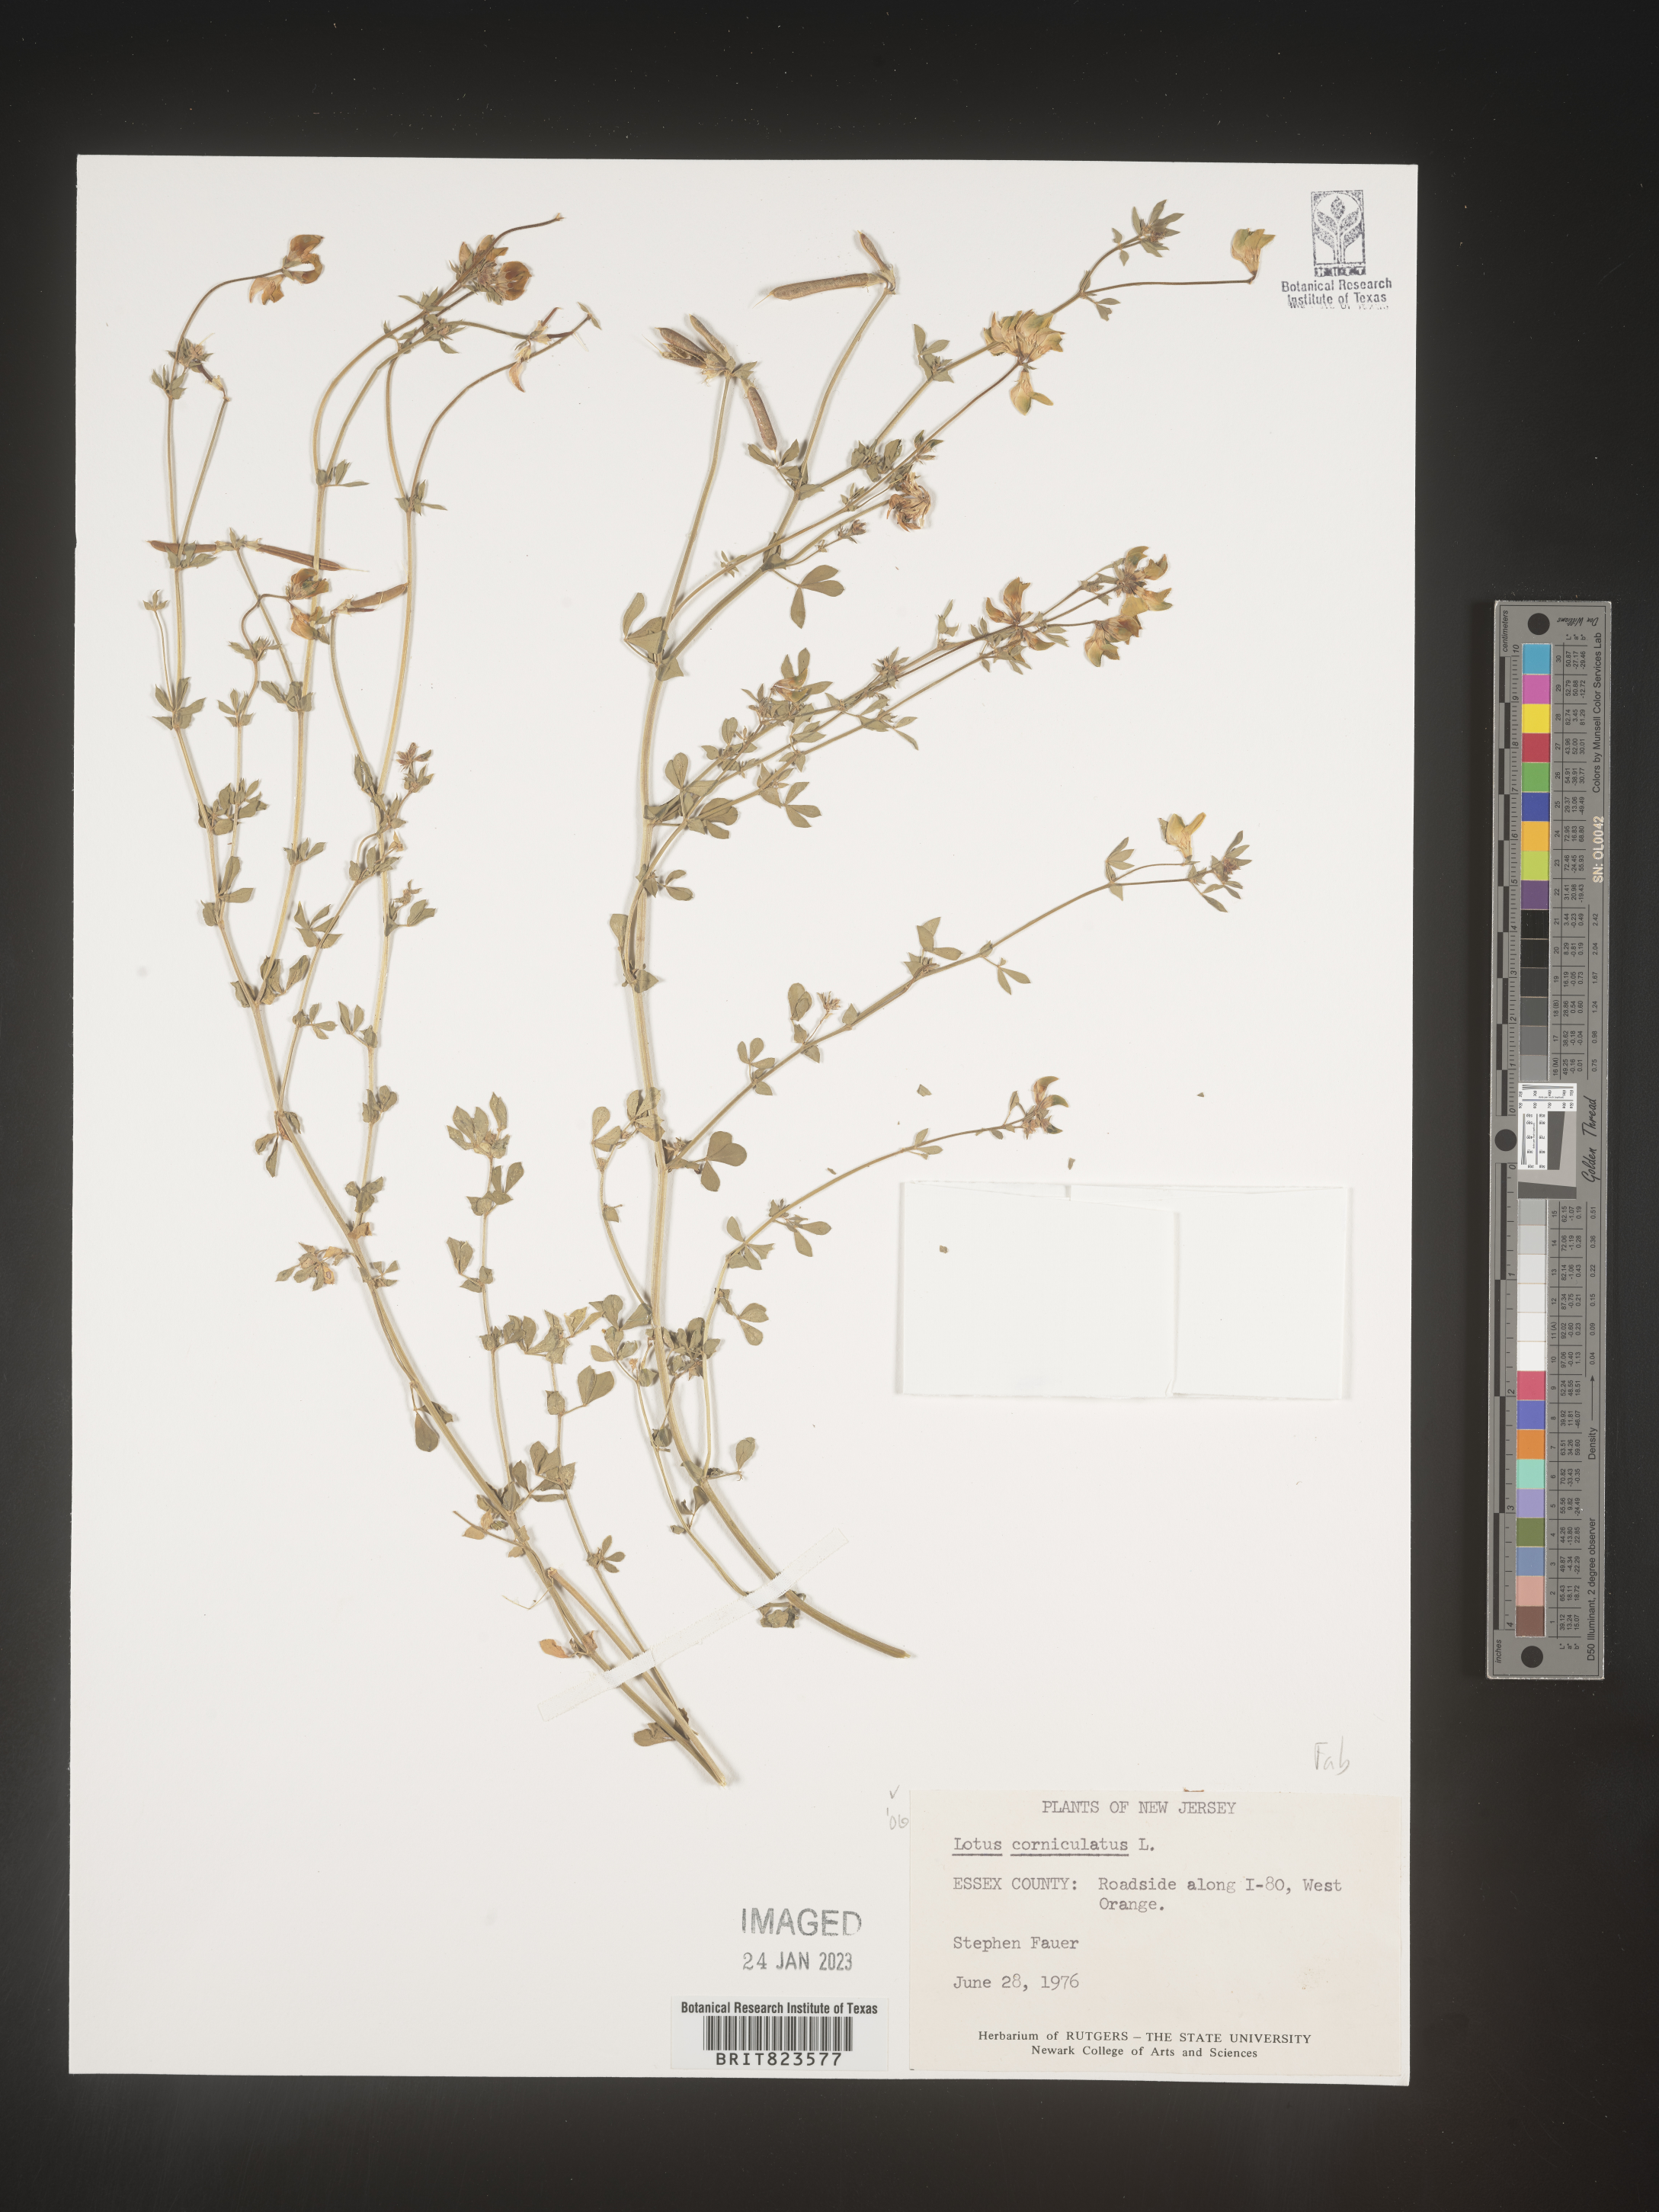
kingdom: Plantae
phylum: Tracheophyta
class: Magnoliopsida
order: Fabales
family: Fabaceae
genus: Lotus
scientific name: Lotus corniculatus
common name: Common bird's-foot-trefoil
